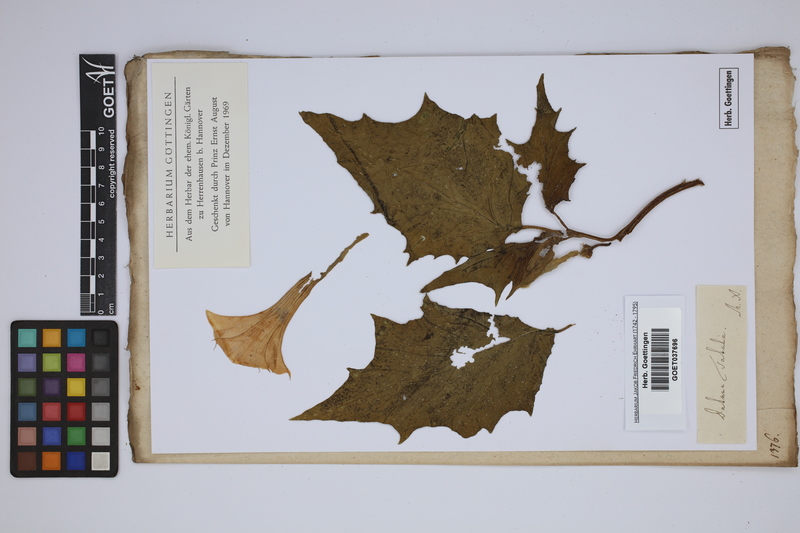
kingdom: Plantae
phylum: Tracheophyta
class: Magnoliopsida
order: Solanales
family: Solanaceae
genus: Datura
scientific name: Datura stramonium
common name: Thorn-apple
